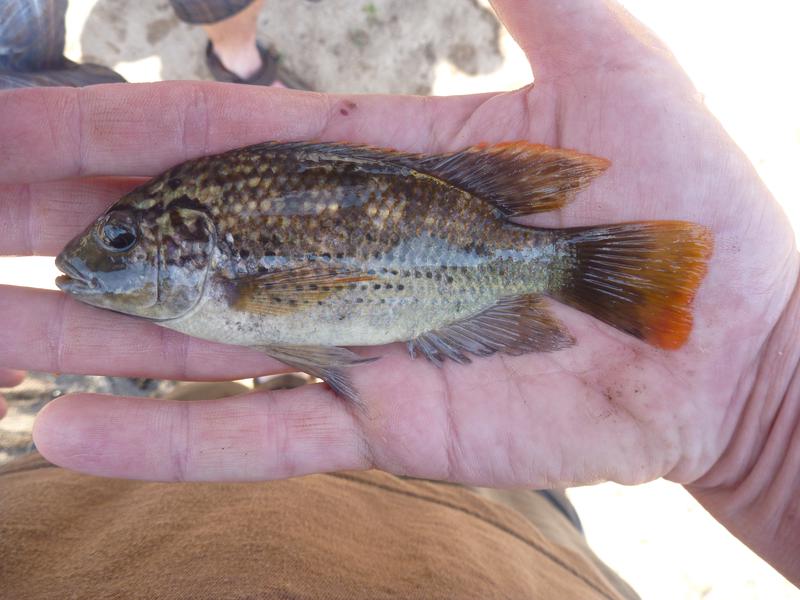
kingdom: Animalia
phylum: Chordata
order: Perciformes
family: Cichlidae
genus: Oreochromis
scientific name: Oreochromis shiranus
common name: Chilwa tilapia
